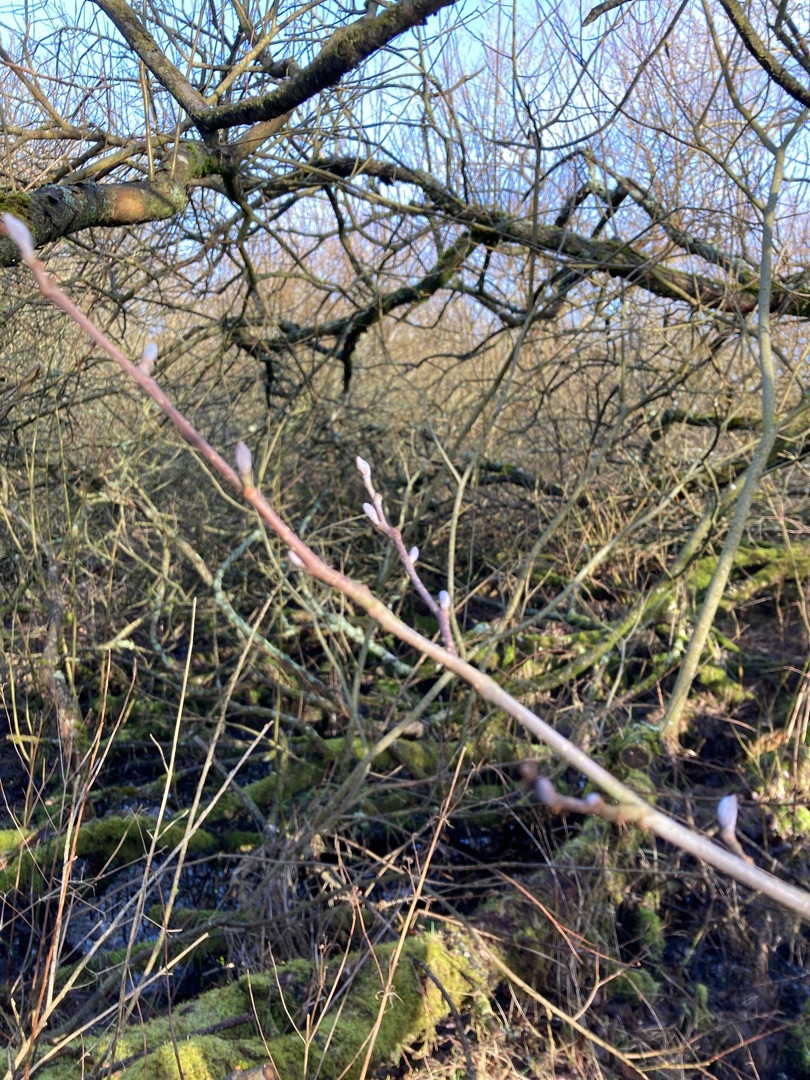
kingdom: Plantae
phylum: Tracheophyta
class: Magnoliopsida
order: Fagales
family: Betulaceae
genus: Alnus
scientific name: Alnus glutinosa
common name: Rød-el
